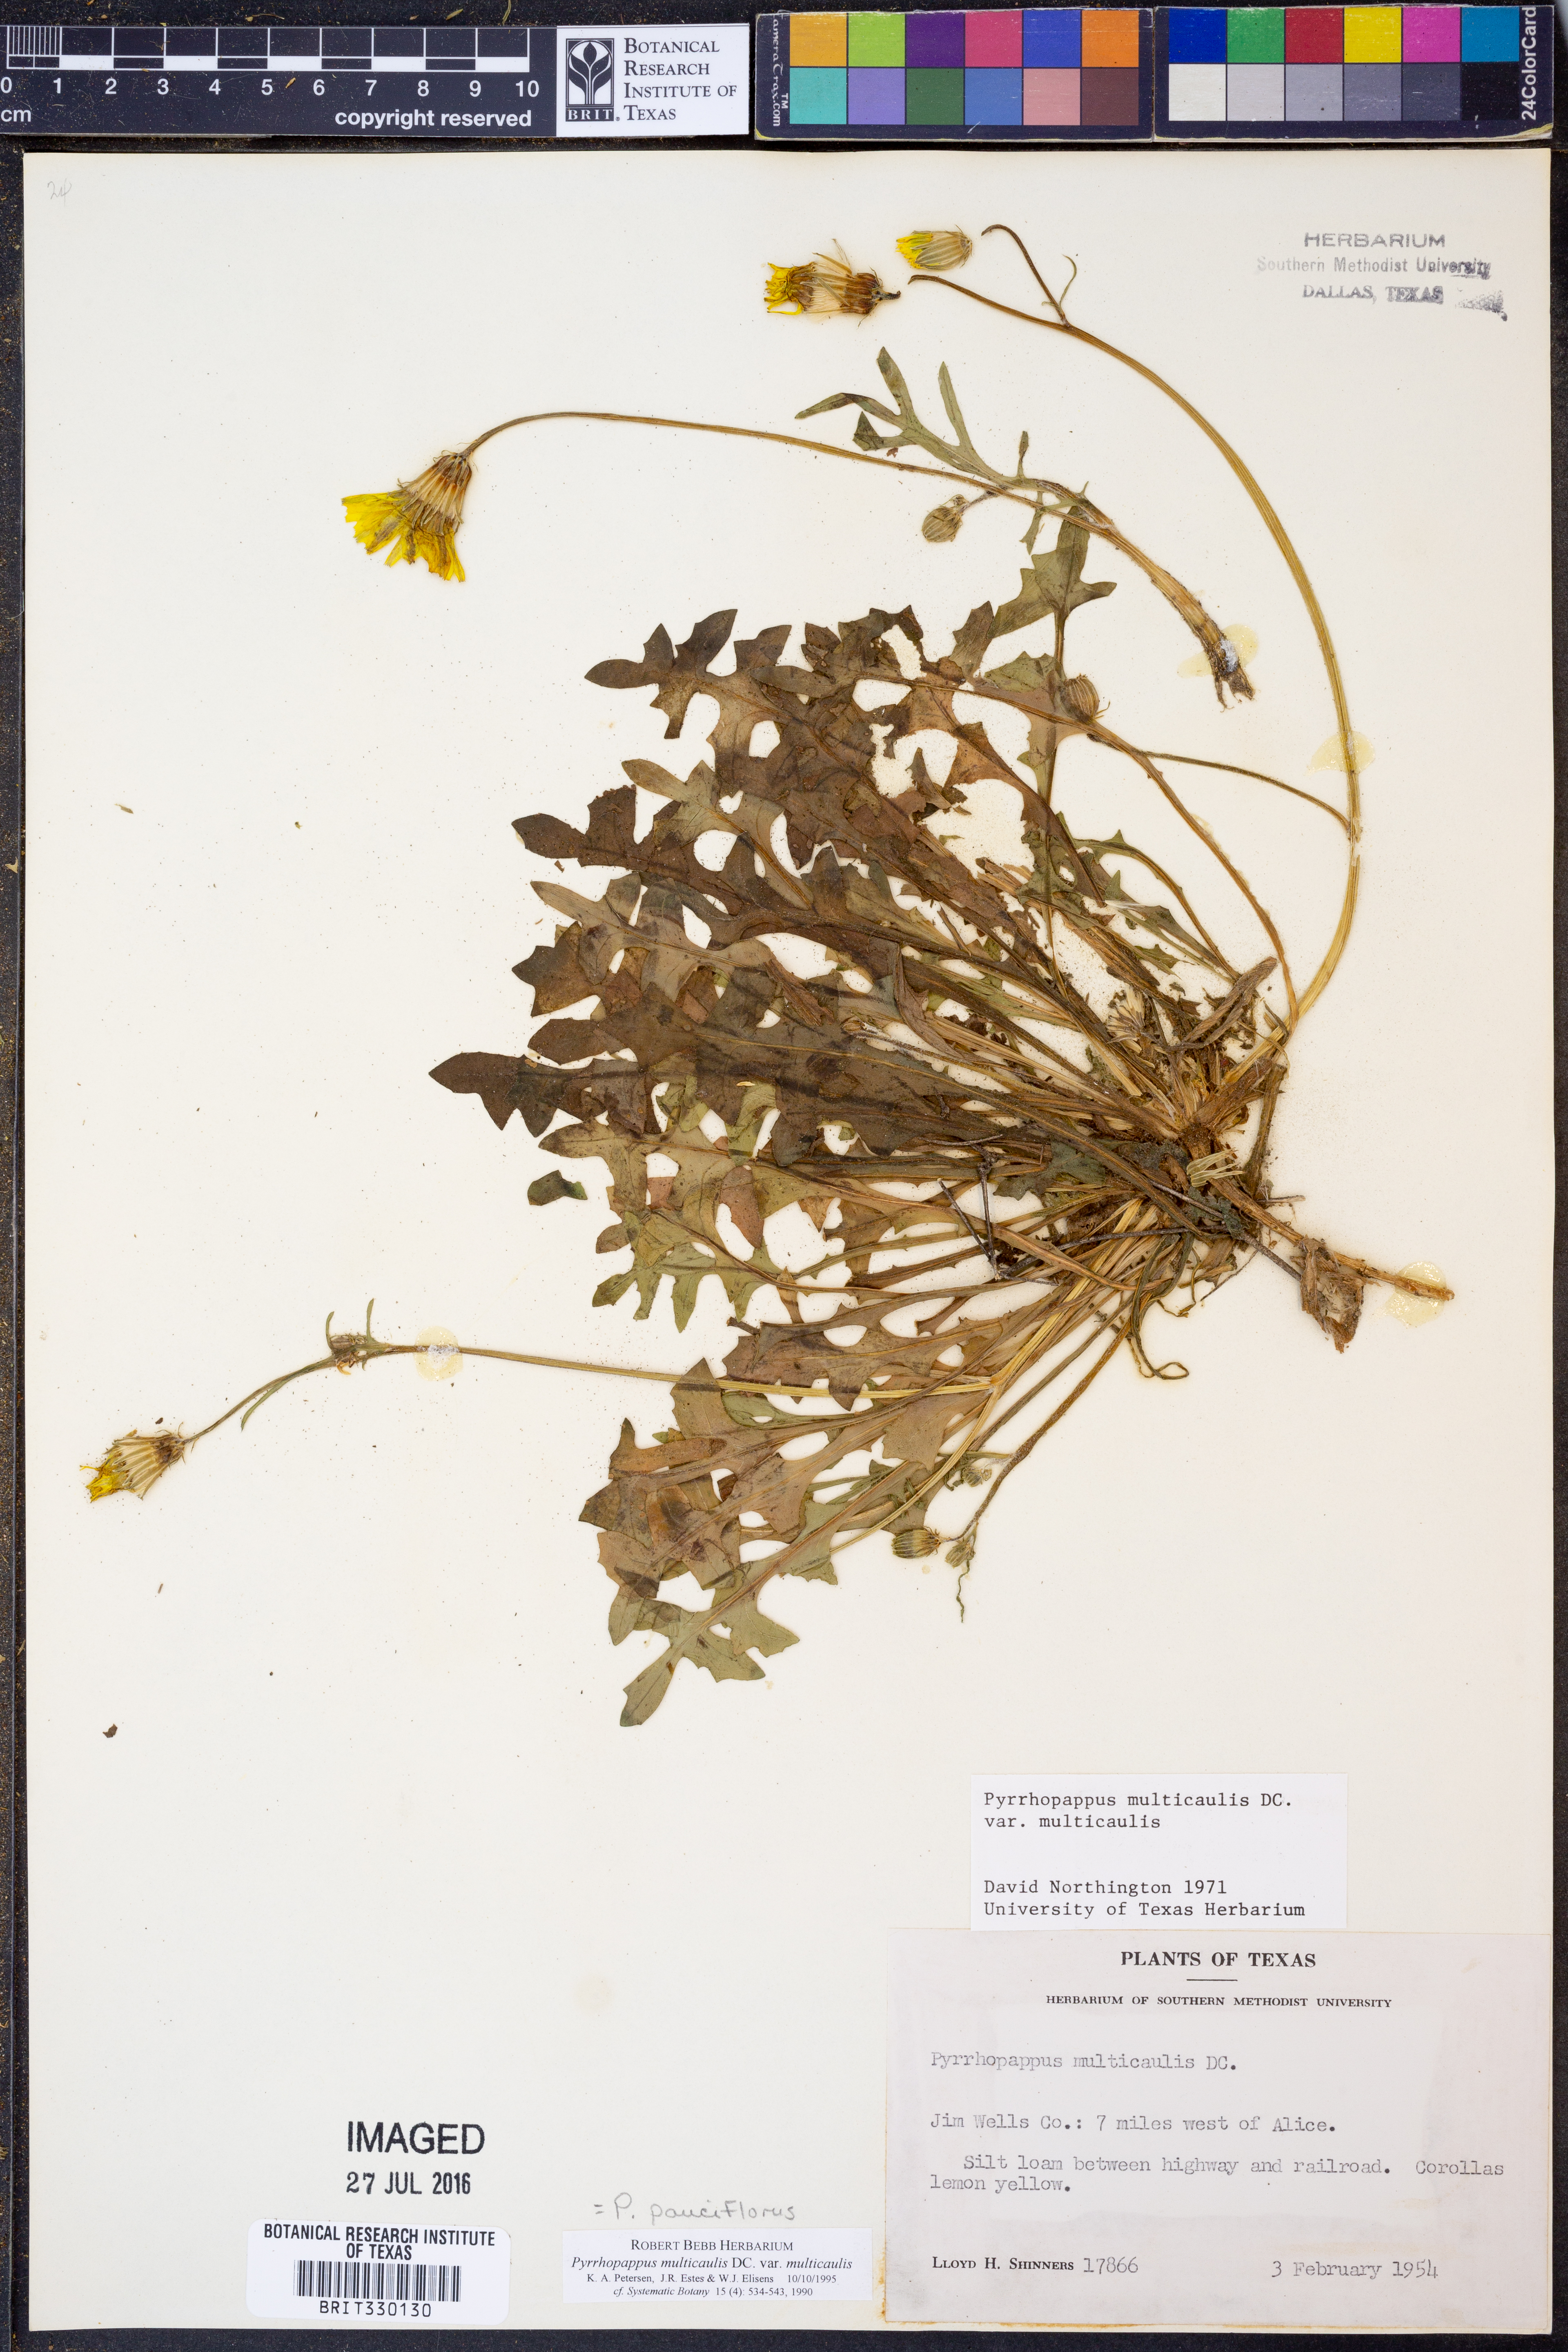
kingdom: Plantae
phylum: Tracheophyta
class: Magnoliopsida
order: Asterales
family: Asteraceae
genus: Pyrrhopappus
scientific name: Pyrrhopappus pauciflorus
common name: Texas false dandelion
